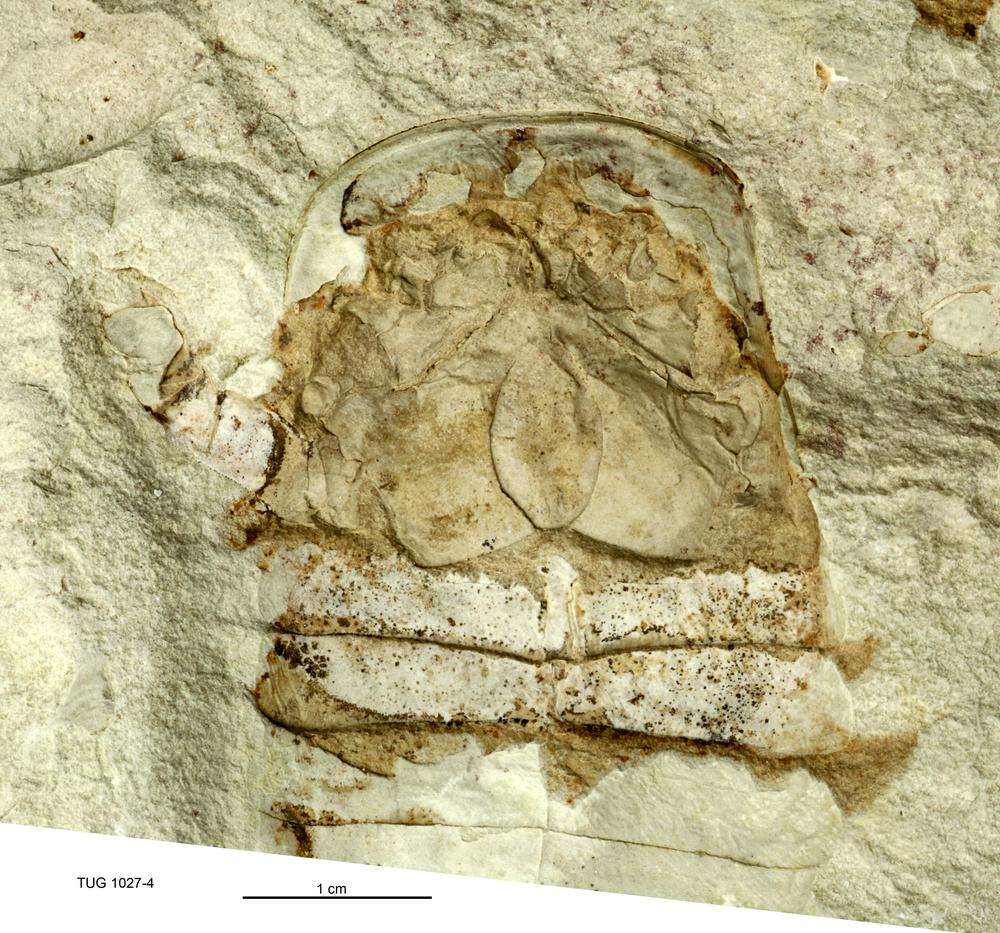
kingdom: Animalia
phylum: Arthropoda
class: Merostomata
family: Eurypteridae
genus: Eurypterus
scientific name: Eurypterus tetragonophthalmus
